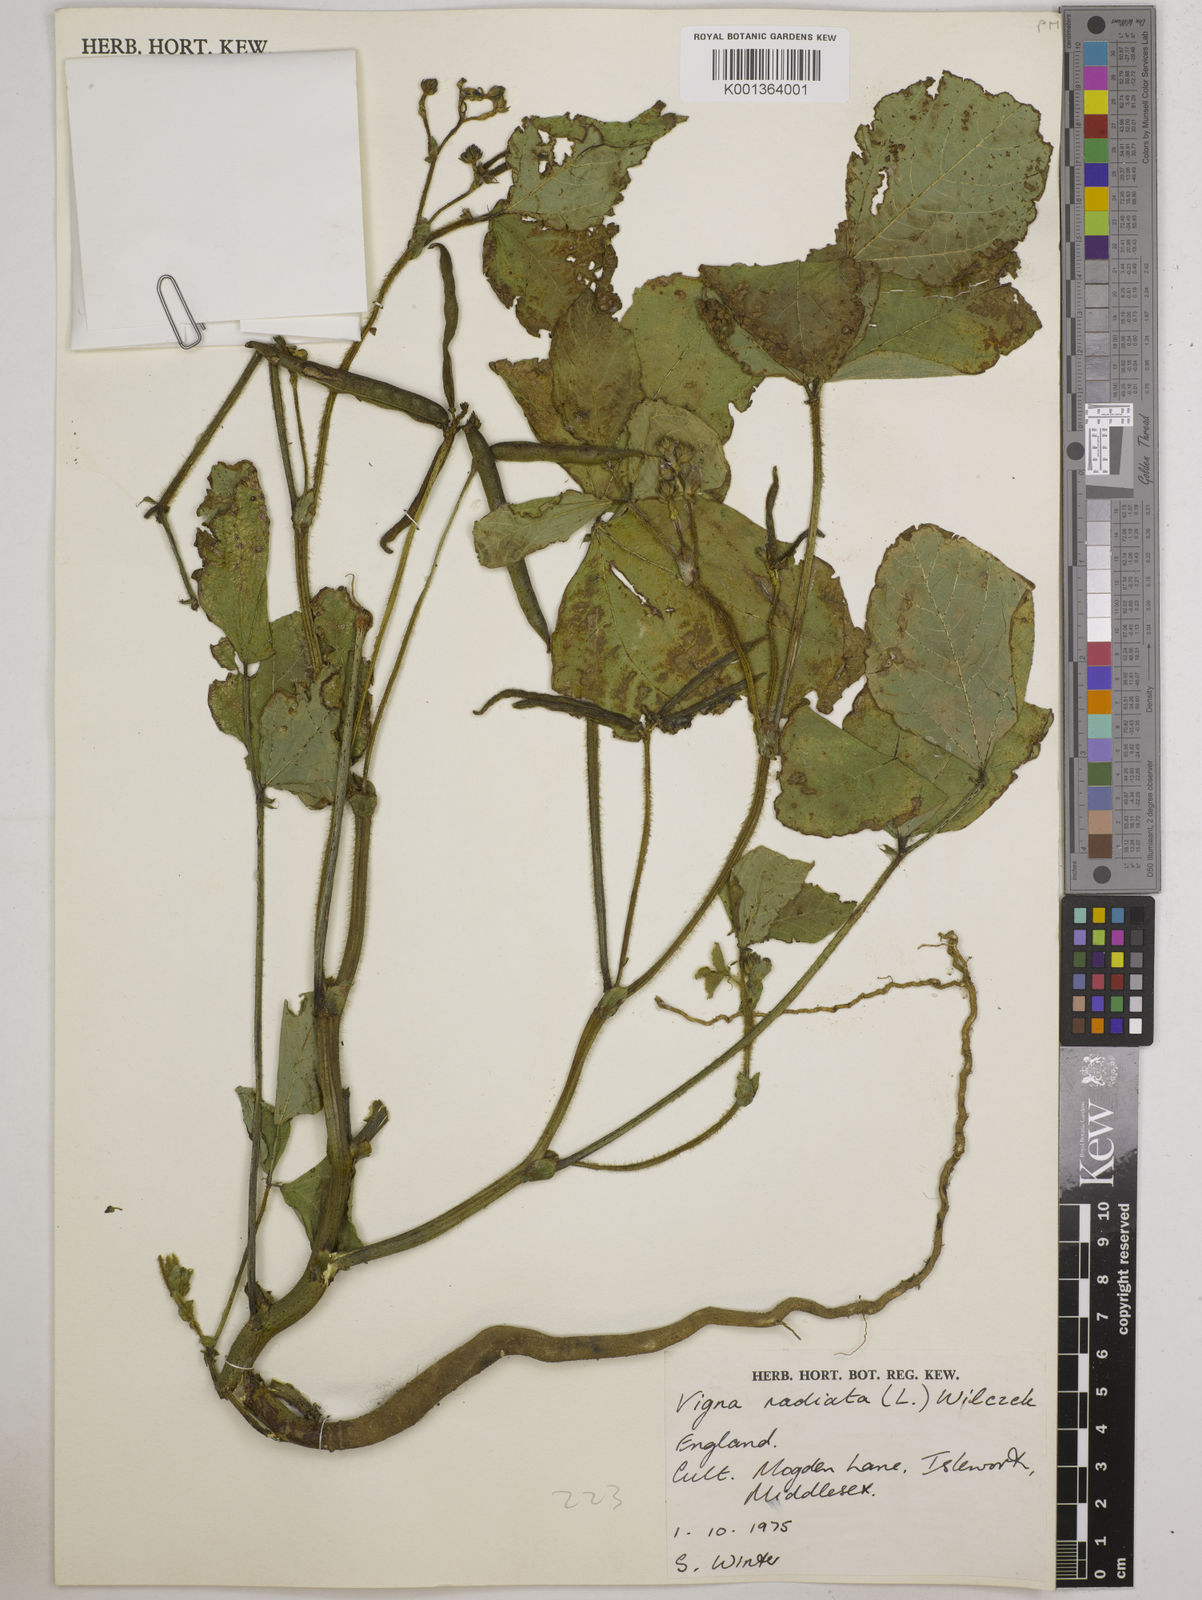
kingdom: Plantae
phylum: Tracheophyta
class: Magnoliopsida
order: Fabales
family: Fabaceae
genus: Vigna
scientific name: Vigna radiata
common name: Mung-bean
